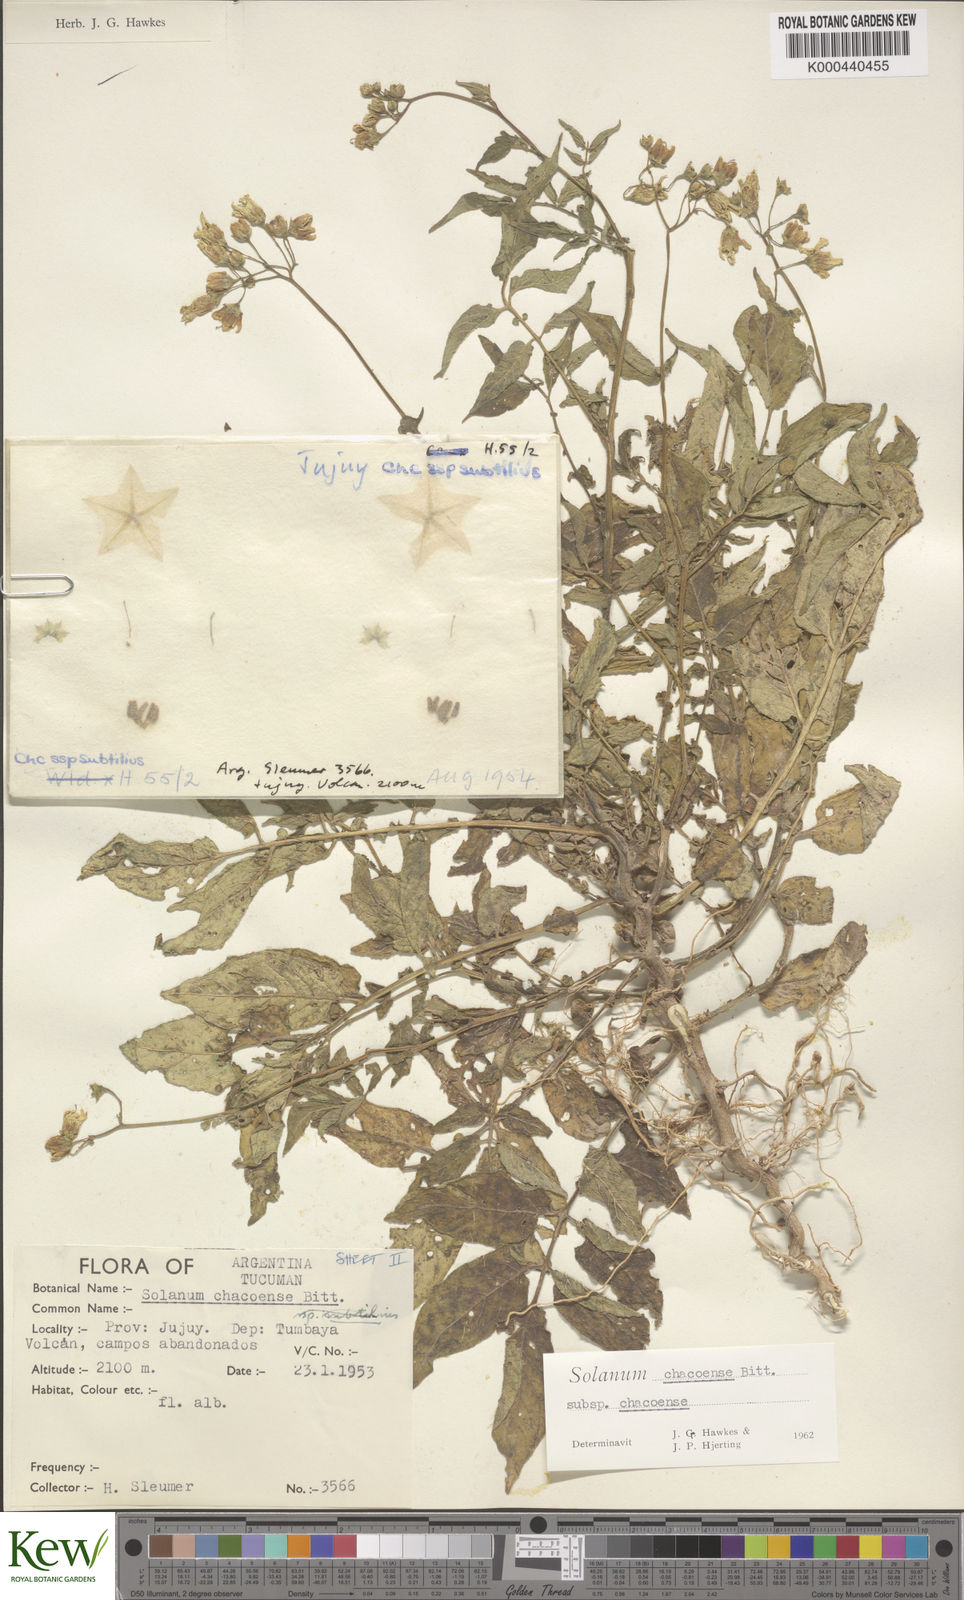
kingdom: Plantae
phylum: Tracheophyta
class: Magnoliopsida
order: Solanales
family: Solanaceae
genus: Solanum
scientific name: Solanum chacoense
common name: Chaco potato
